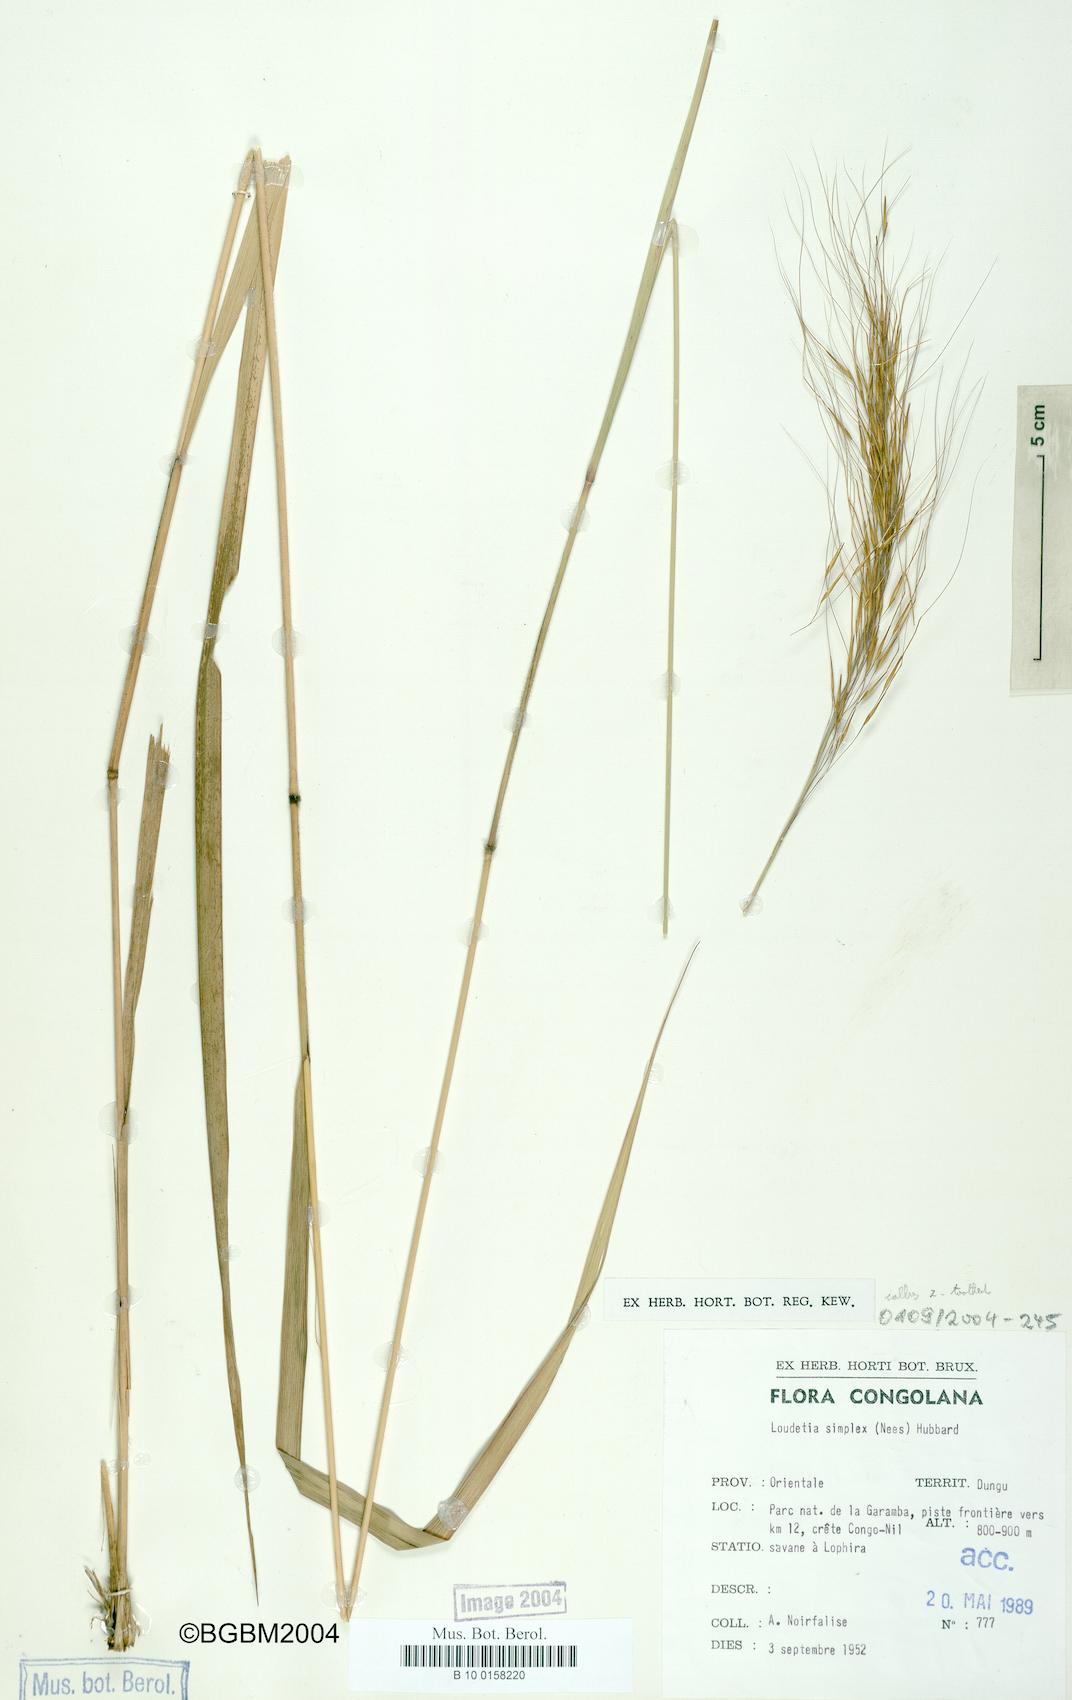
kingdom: Plantae
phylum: Tracheophyta
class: Liliopsida
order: Poales
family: Poaceae
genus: Loudetia
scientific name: Loudetia simplex
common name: Common russet grass
